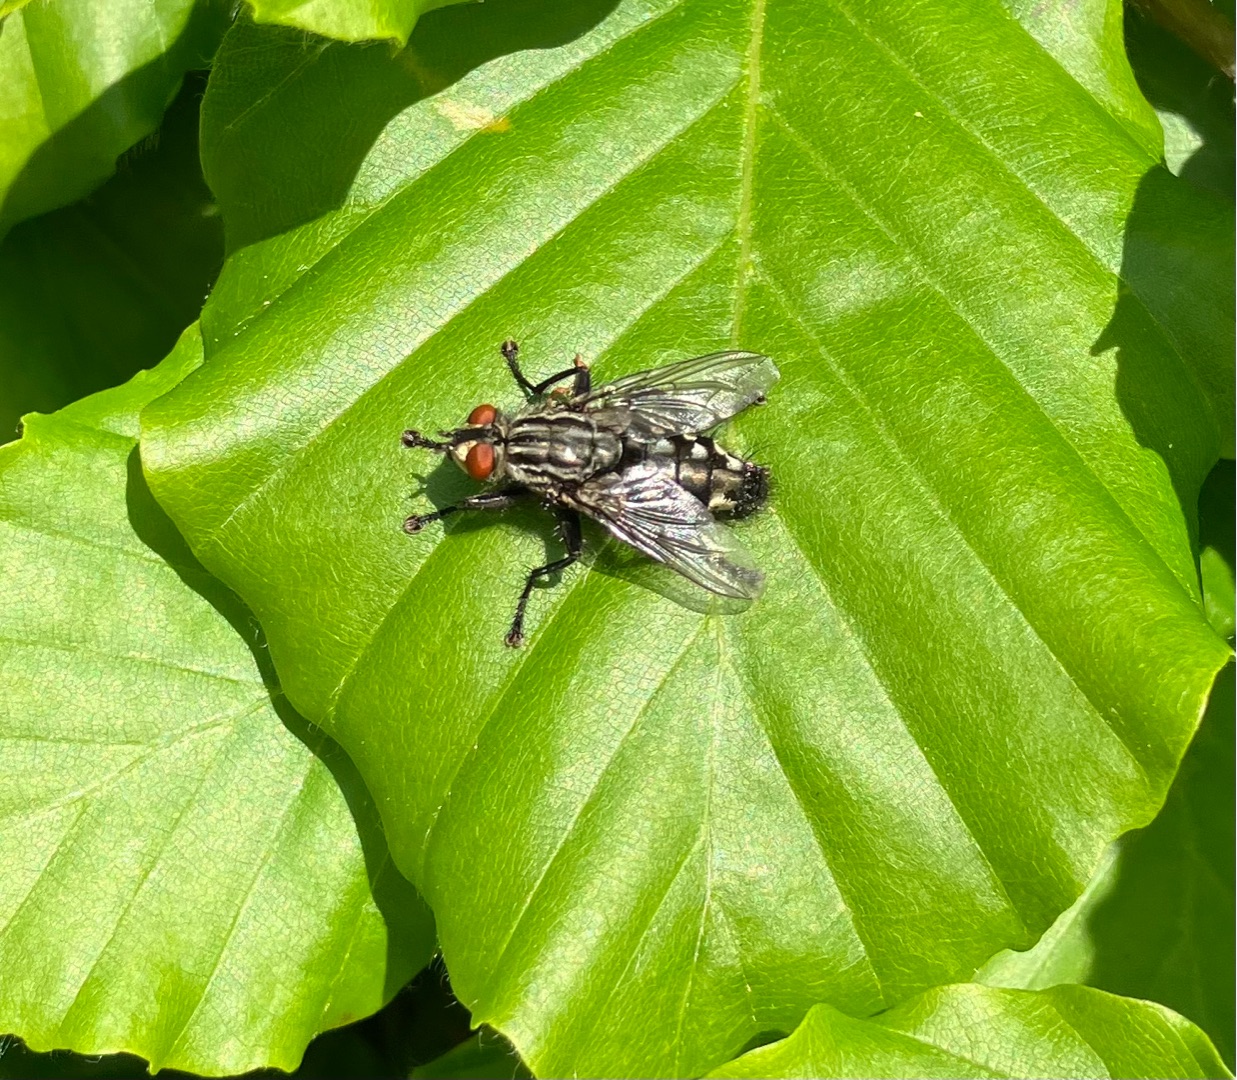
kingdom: Animalia
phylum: Arthropoda
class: Insecta
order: Diptera
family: Sarcophagidae
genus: Sarcophaga
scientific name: Sarcophaga
